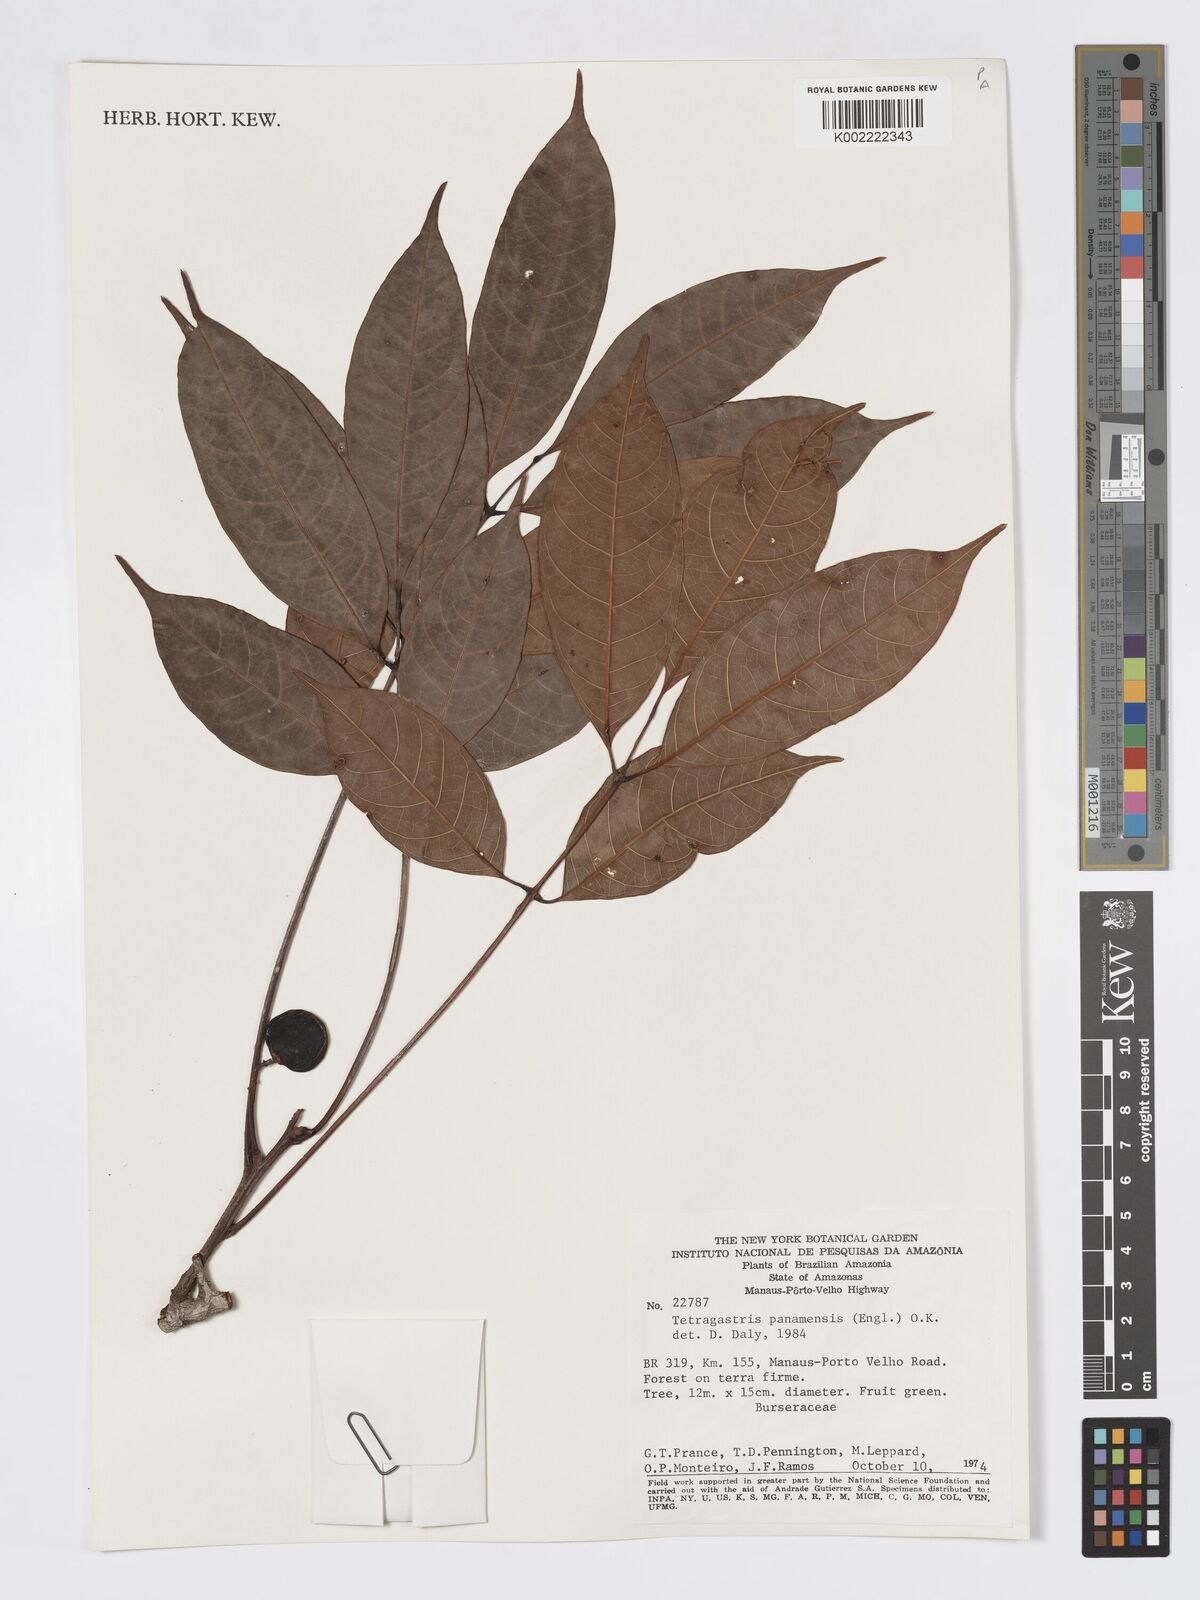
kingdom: Plantae
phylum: Tracheophyta
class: Magnoliopsida
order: Sapindales
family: Burseraceae
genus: Tetragastris
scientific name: Tetragastris panamensis
